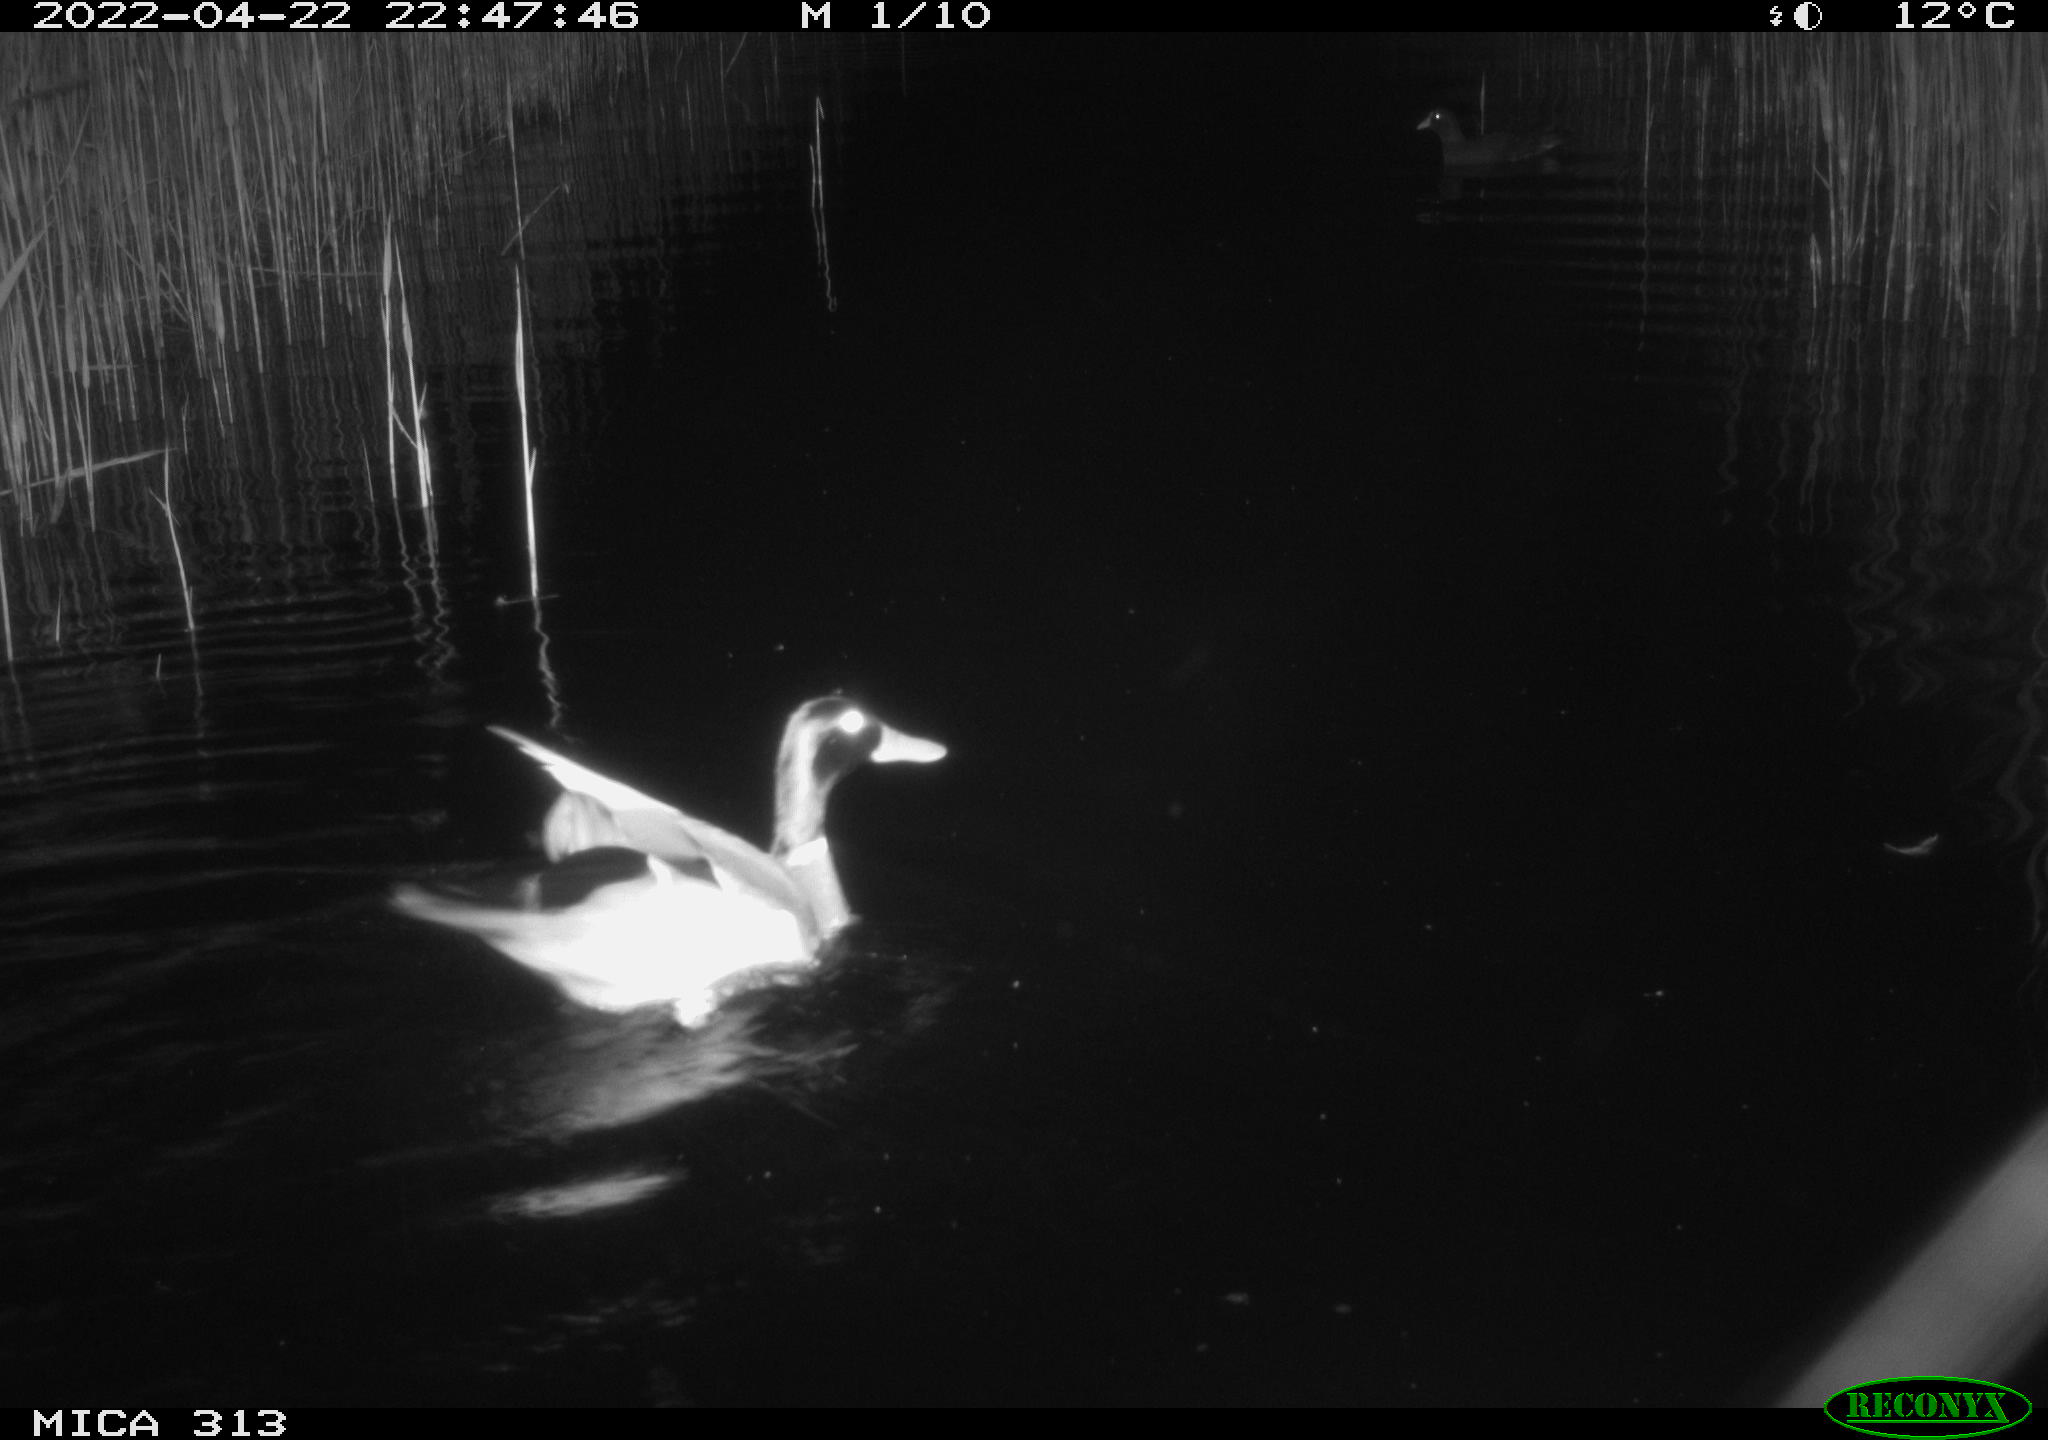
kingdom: Animalia
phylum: Chordata
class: Aves
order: Anseriformes
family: Anatidae
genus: Anas
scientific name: Anas platyrhynchos
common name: Mallard
